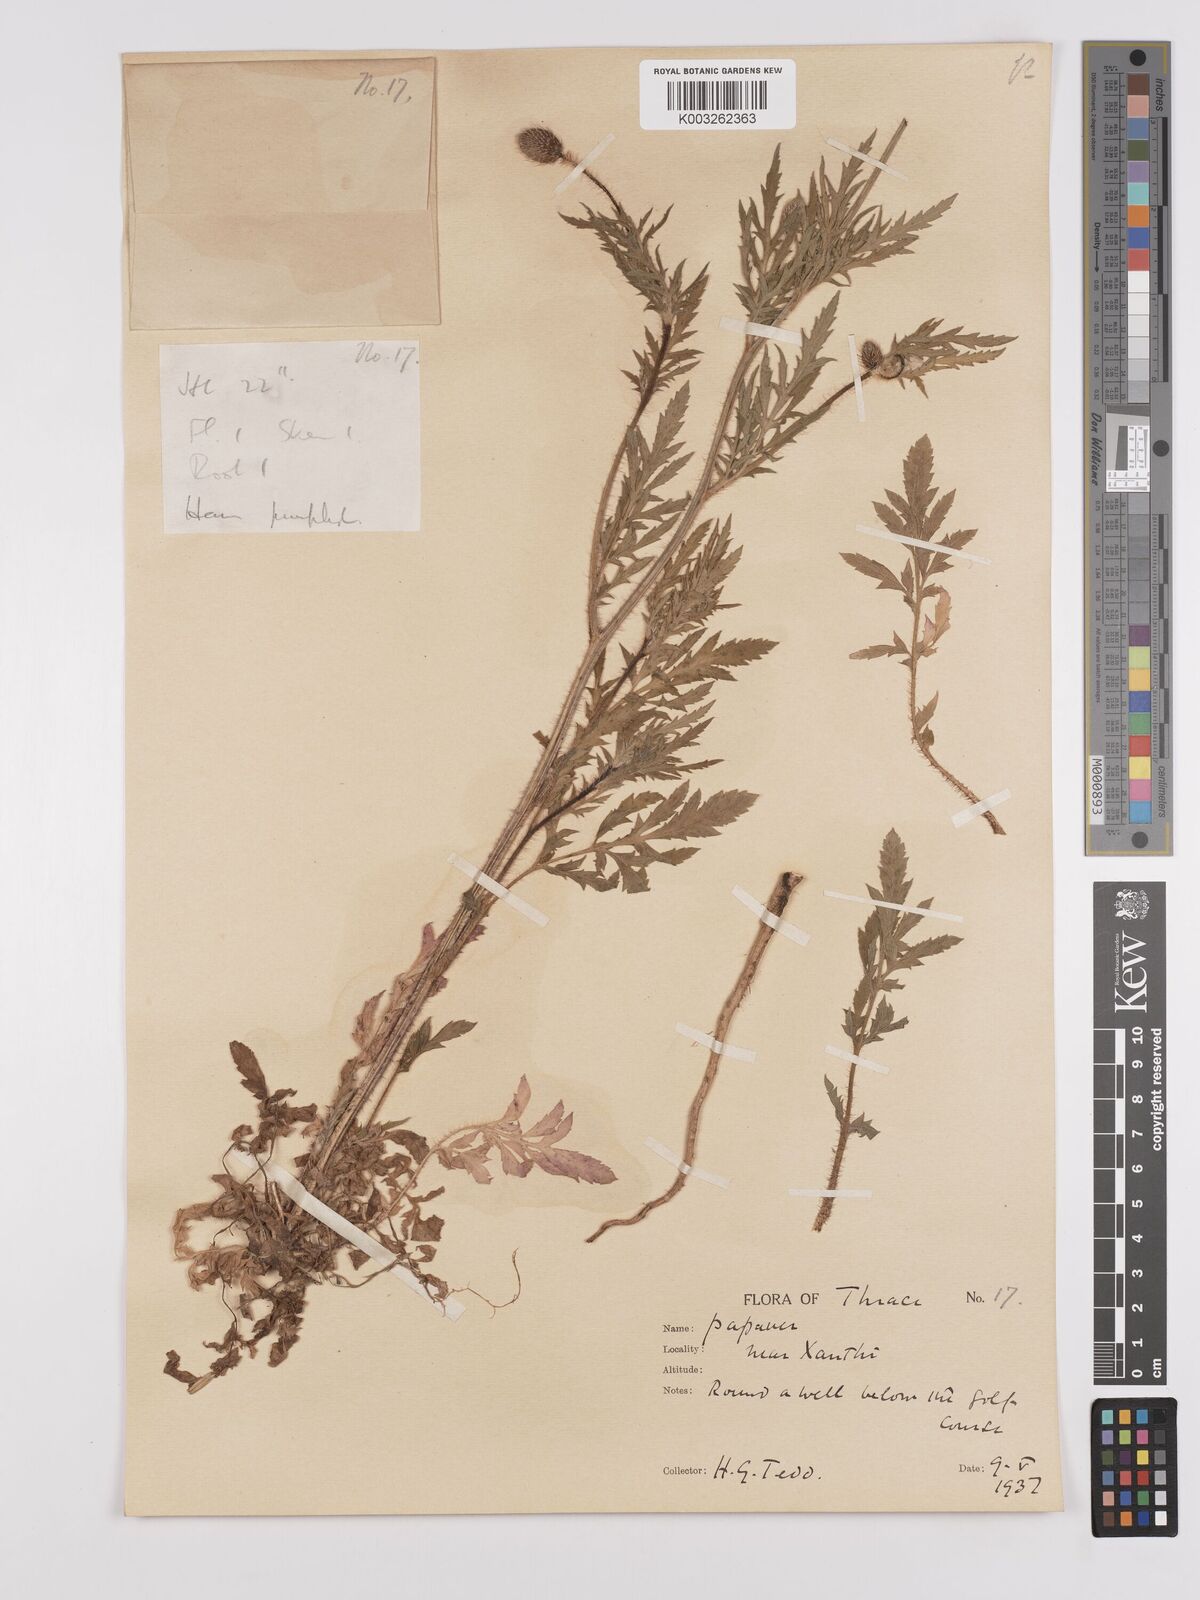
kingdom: Plantae
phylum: Tracheophyta
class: Magnoliopsida
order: Ranunculales
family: Papaveraceae
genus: Papaver
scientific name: Papaver rhoeas
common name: Corn poppy
